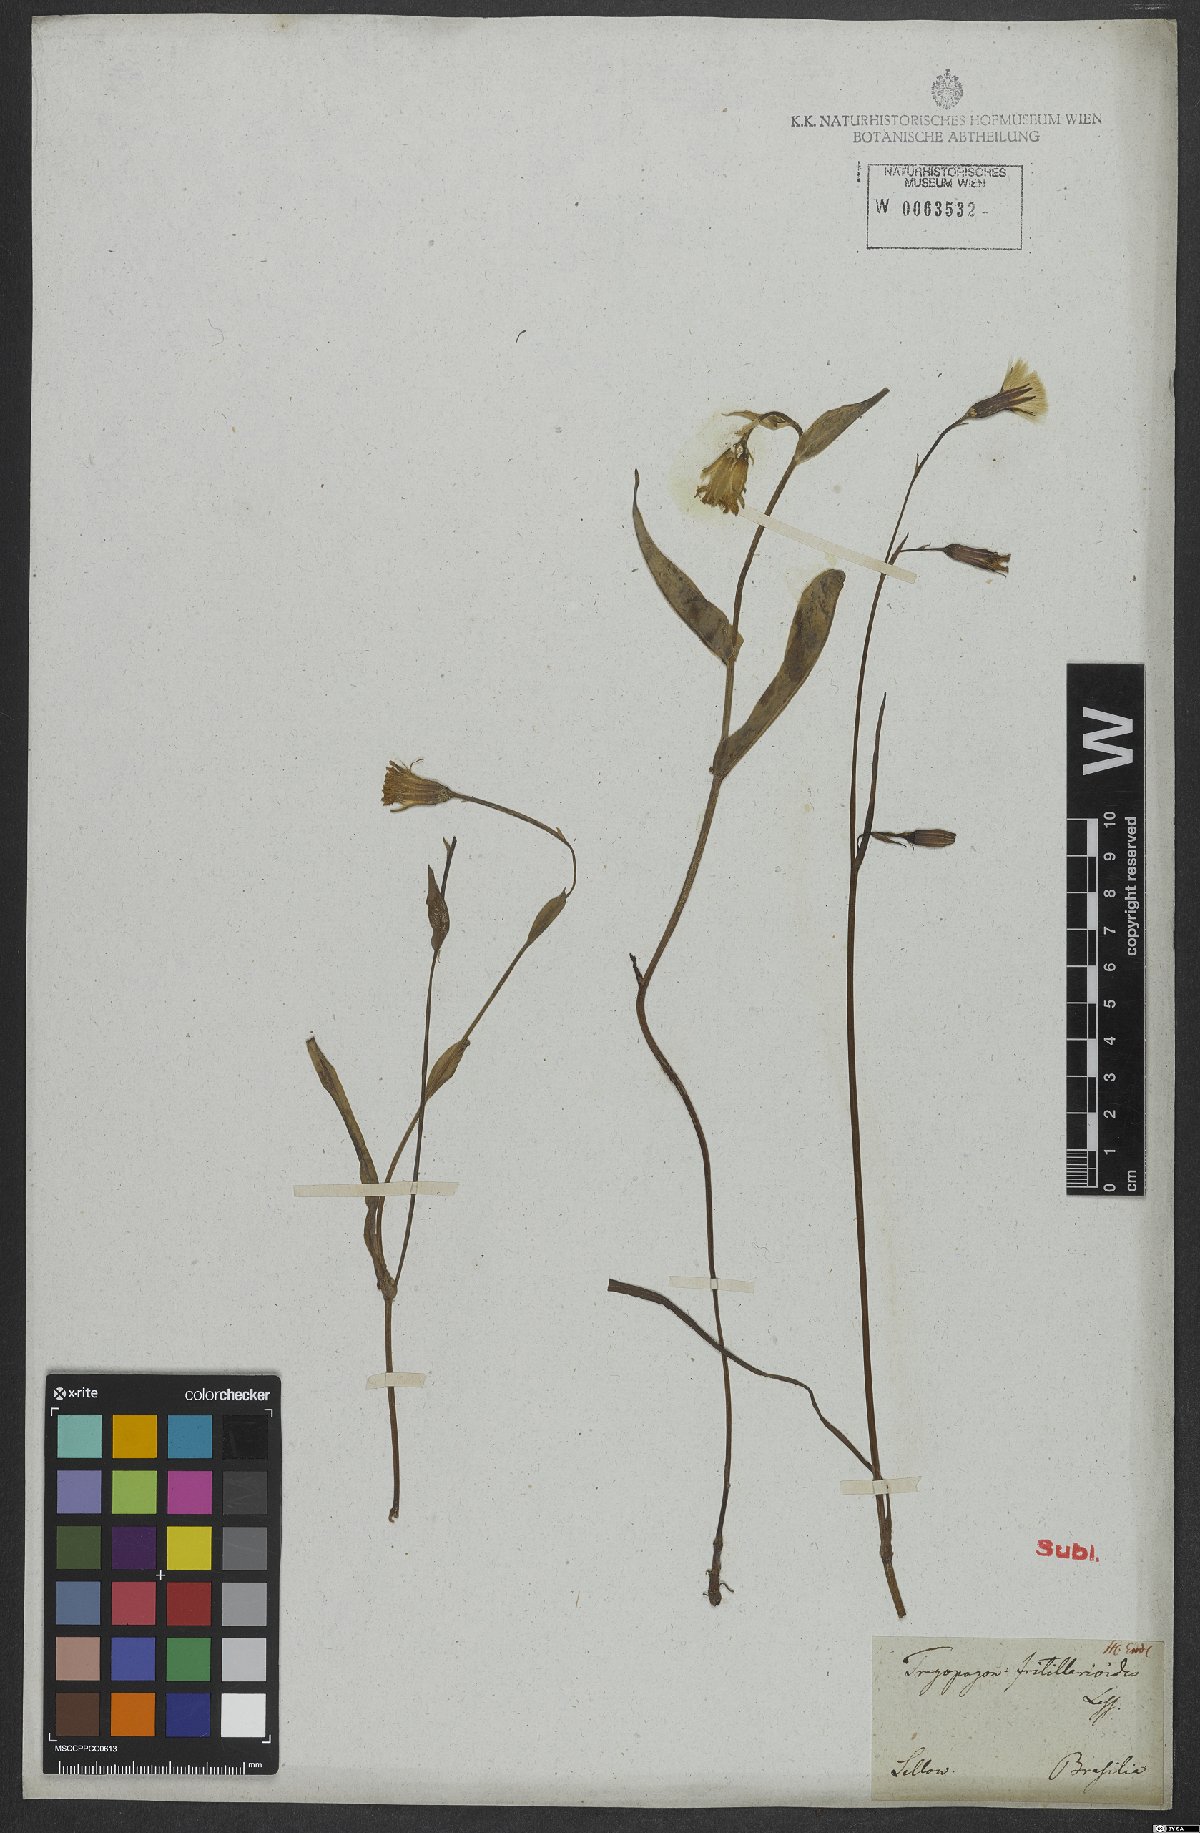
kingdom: Plantae
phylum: Tracheophyta
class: Magnoliopsida
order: Asterales
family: Asteraceae
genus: Picrosia
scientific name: Picrosia longifolia
